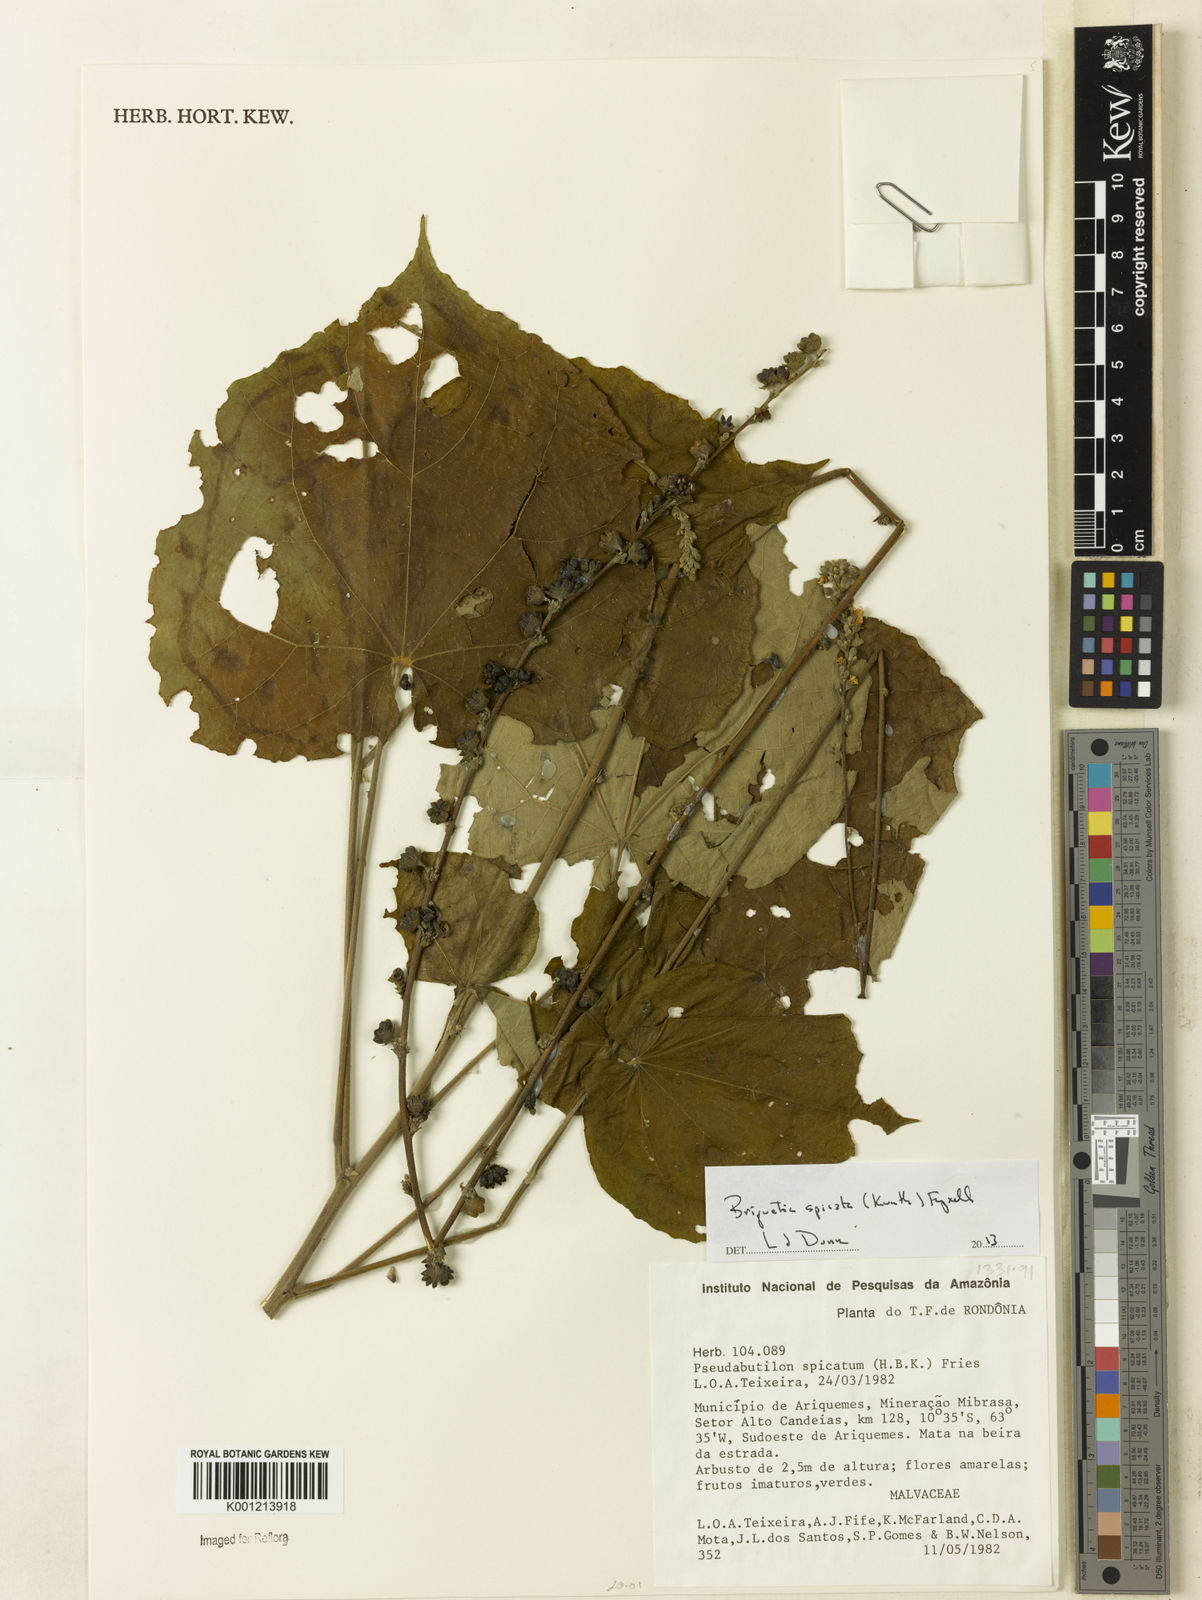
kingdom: Plantae
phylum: Tracheophyta
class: Magnoliopsida
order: Malvales
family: Malvaceae
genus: Allobriquetia
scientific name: Allobriquetia spicata
